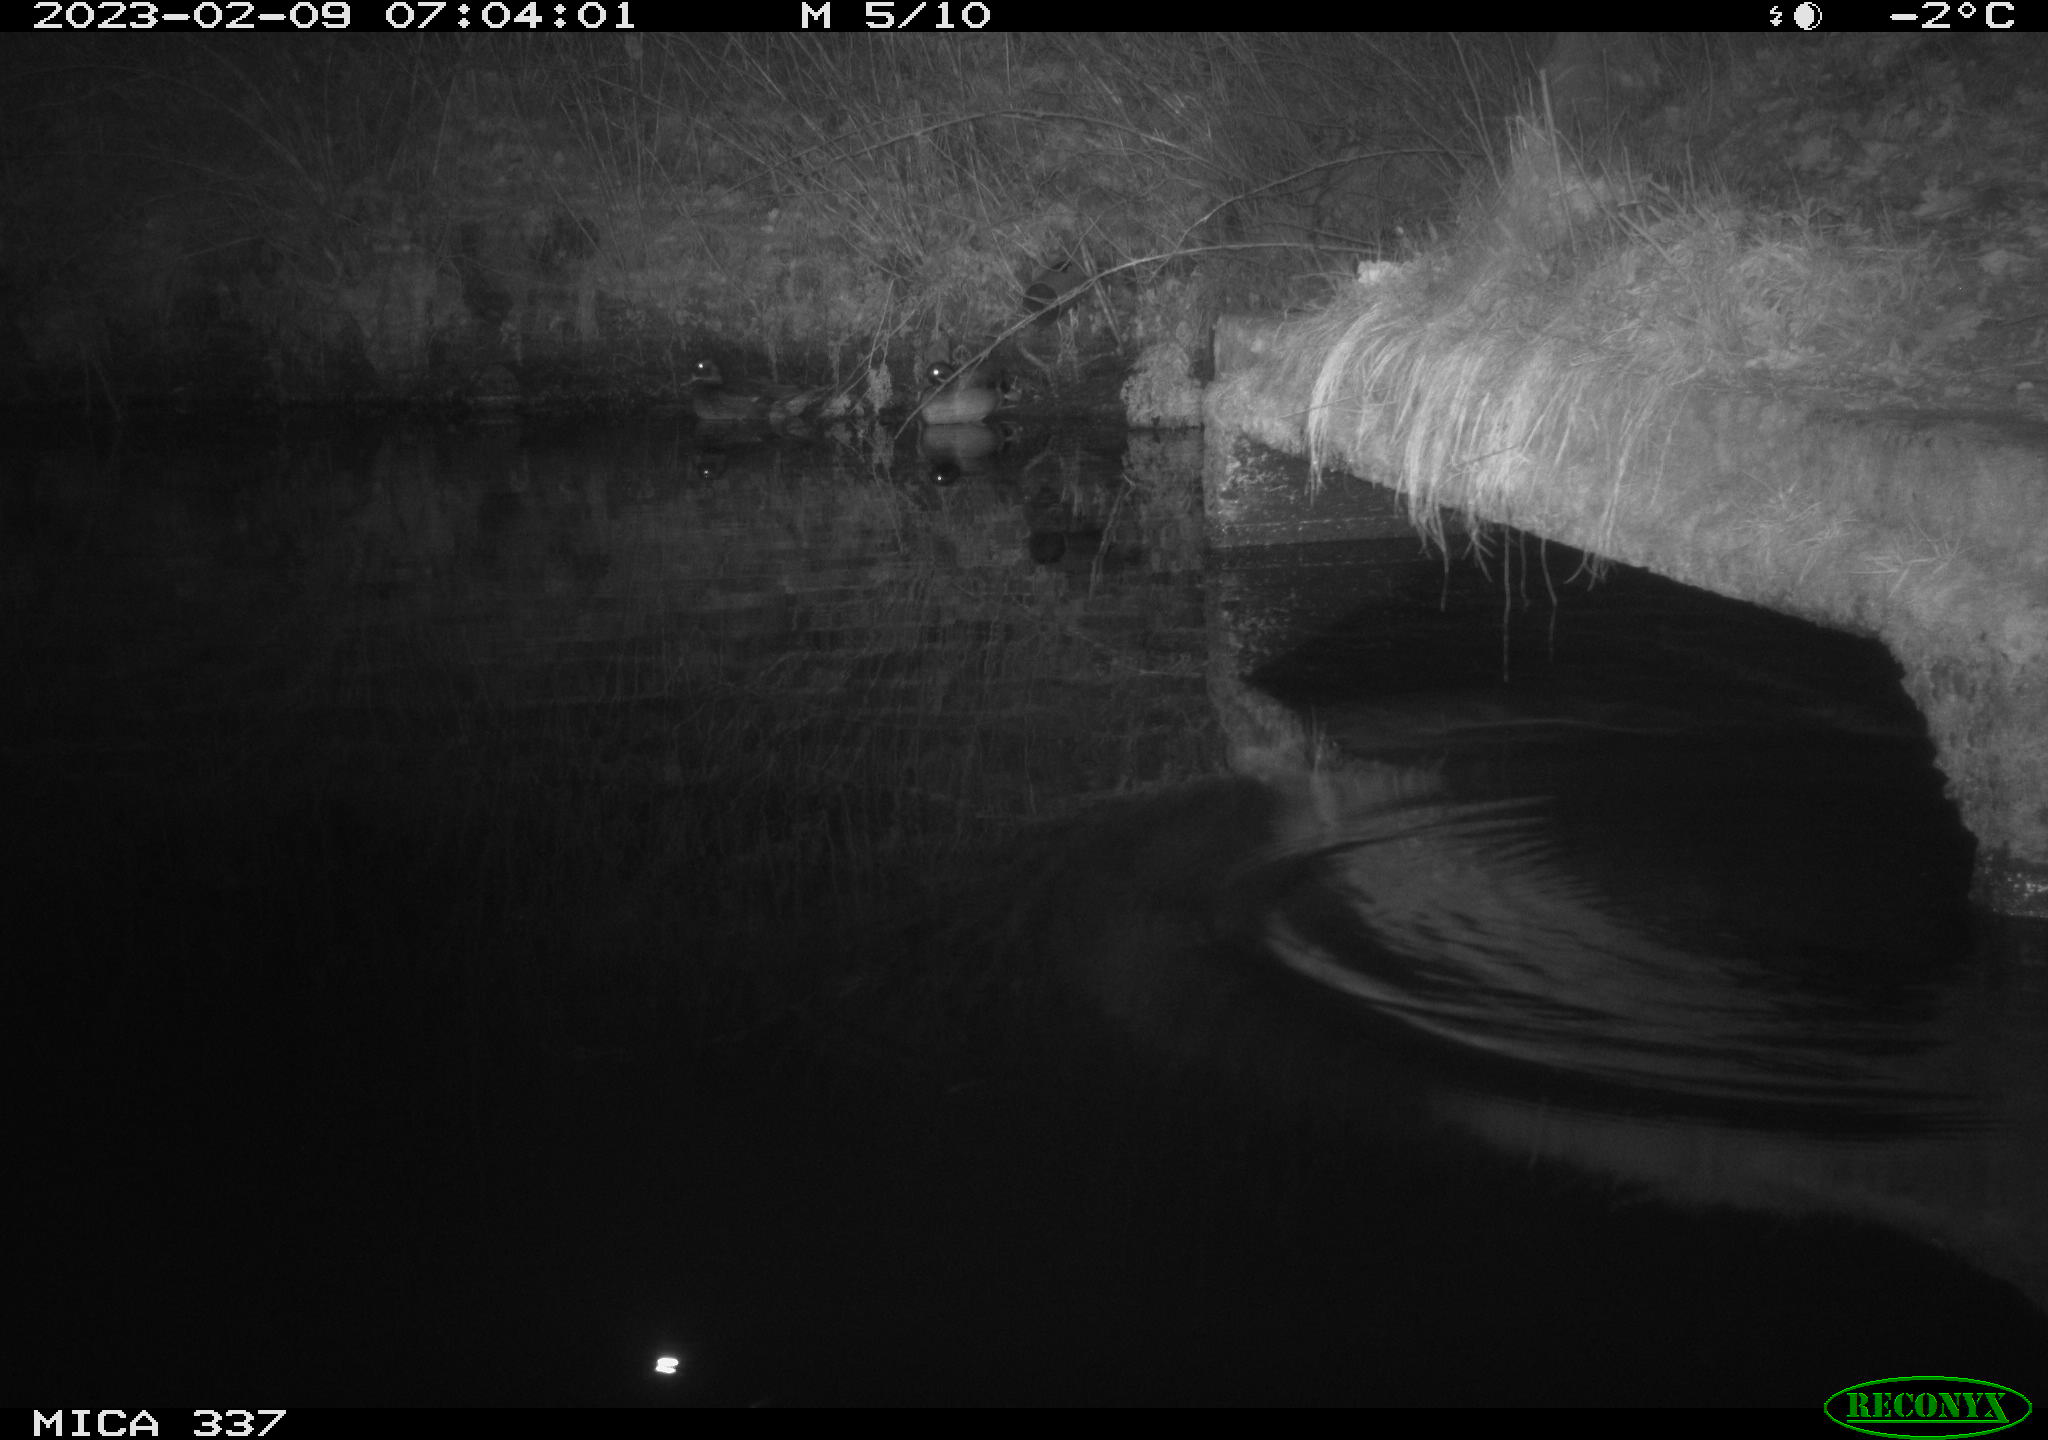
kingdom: Animalia
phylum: Chordata
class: Mammalia
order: Rodentia
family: Muridae
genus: Rattus
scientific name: Rattus norvegicus
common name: Brown rat
